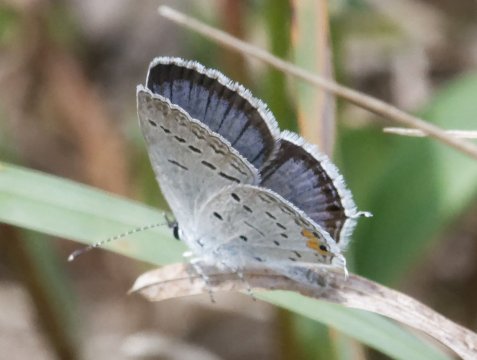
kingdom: Animalia
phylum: Arthropoda
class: Insecta
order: Lepidoptera
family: Lycaenidae
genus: Elkalyce
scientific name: Elkalyce comyntas
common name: Eastern Tailed-Blue
